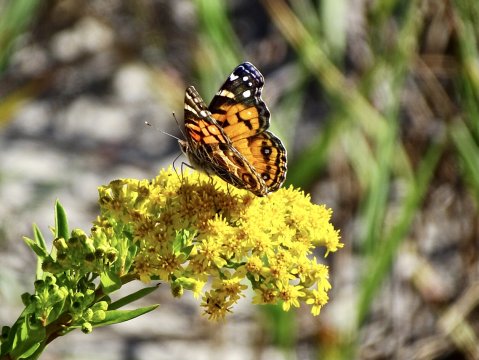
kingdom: Animalia
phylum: Arthropoda
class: Insecta
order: Lepidoptera
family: Nymphalidae
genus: Vanessa
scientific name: Vanessa virginiensis
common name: American Lady
